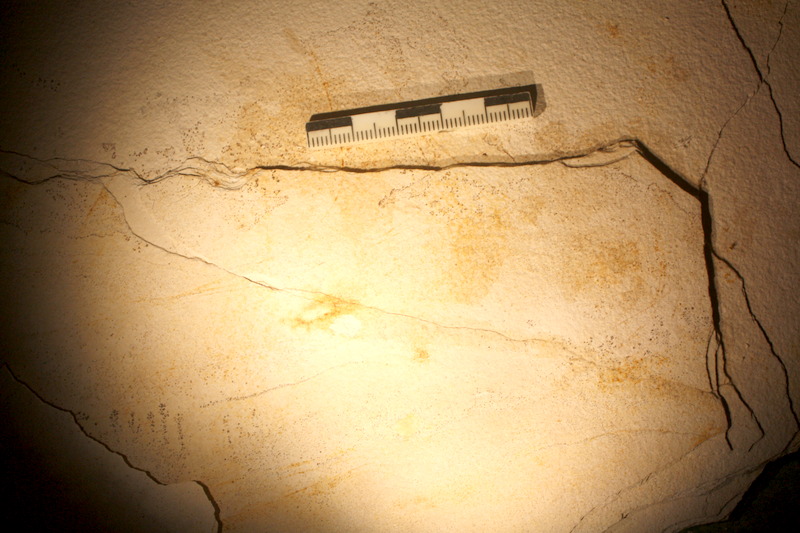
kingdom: Animalia
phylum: Chordata
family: Ascalaboidae
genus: Ebertichthys
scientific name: Ebertichthys ettlingensis
